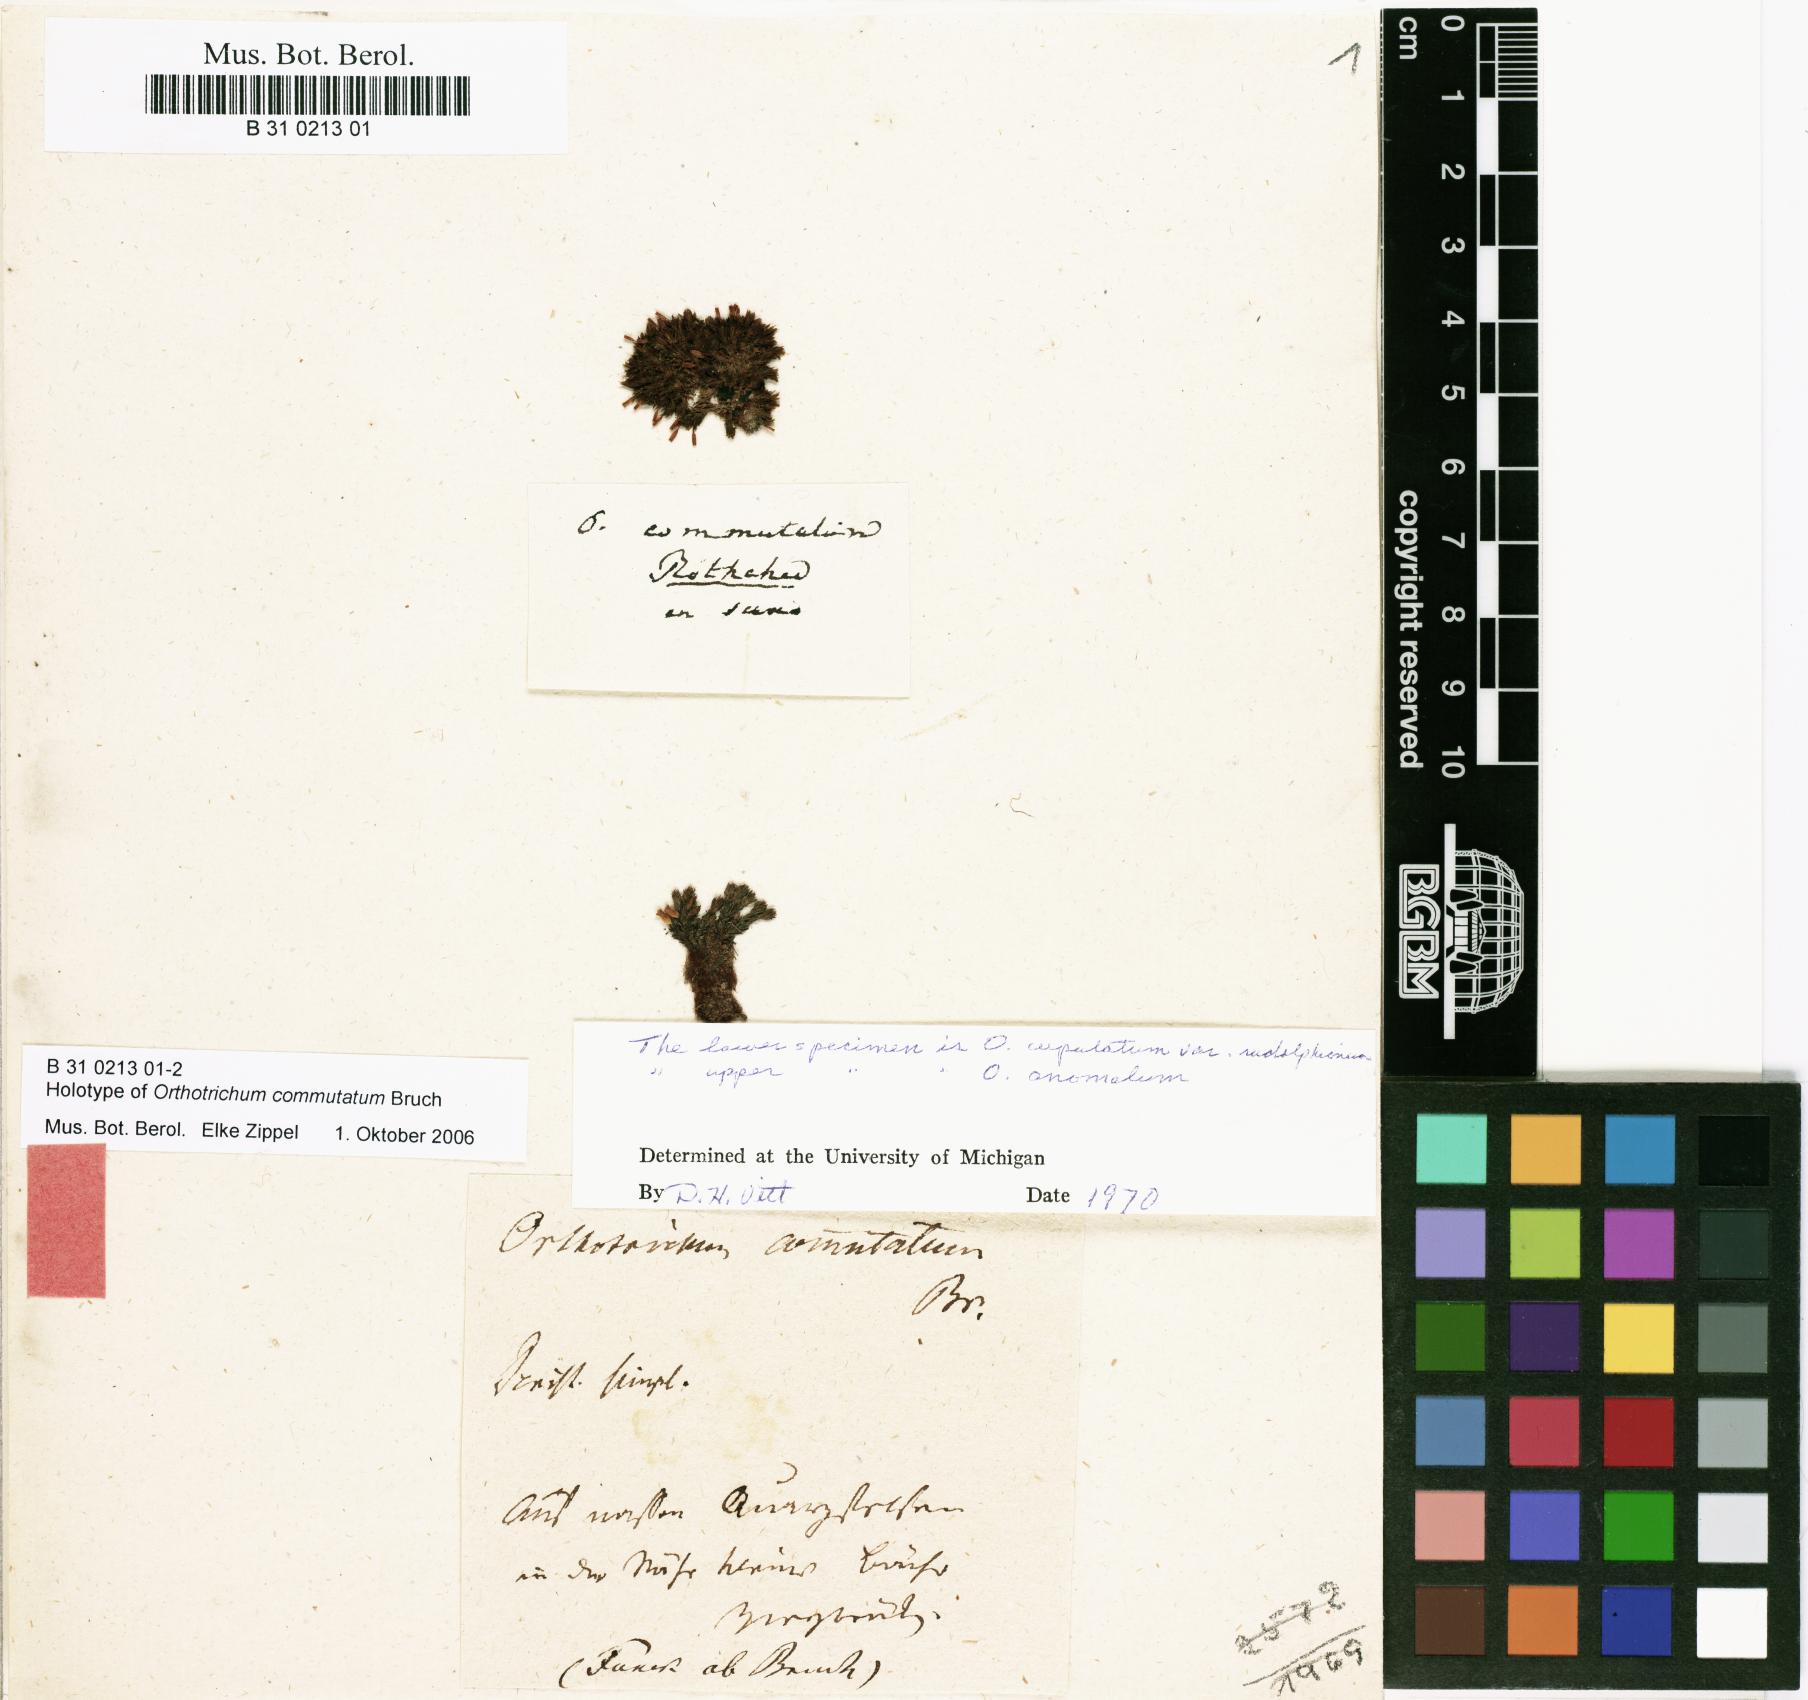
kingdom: Plantae
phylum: Bryophyta
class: Bryopsida
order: Orthotrichales
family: Orthotrichaceae
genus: Orthotrichum
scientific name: Orthotrichum anomalum
